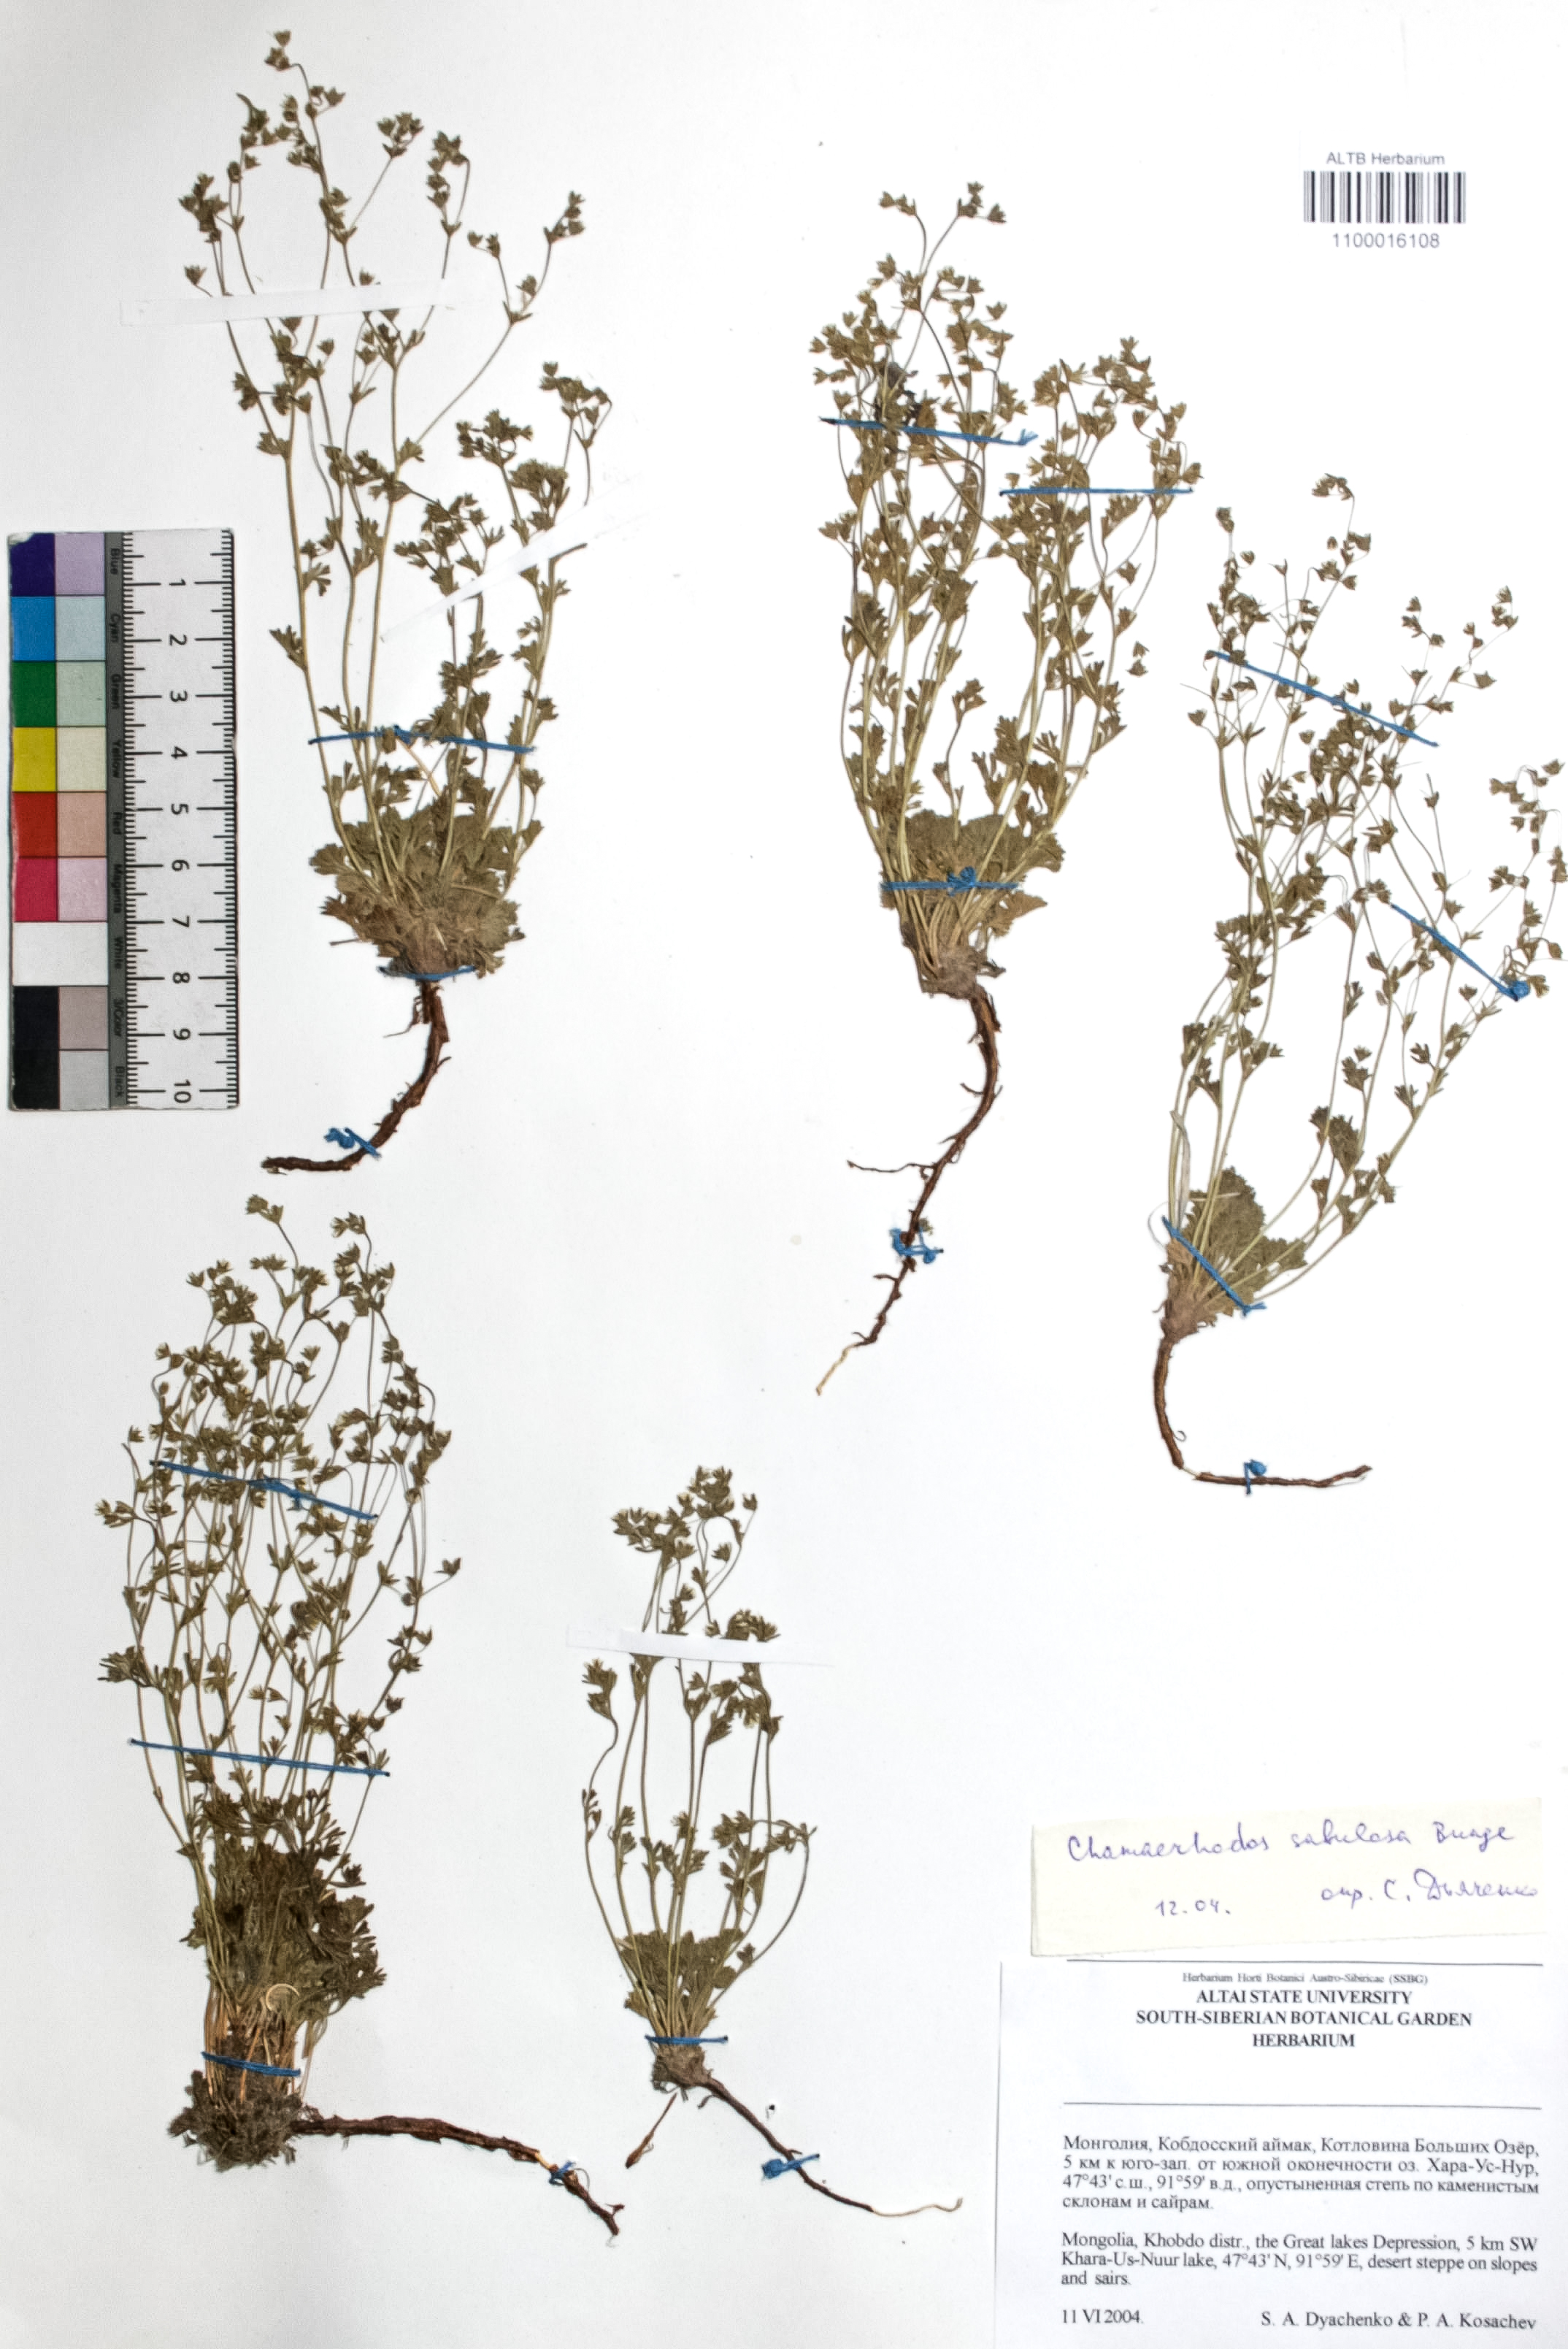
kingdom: Plantae
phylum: Tracheophyta
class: Magnoliopsida
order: Rosales
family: Rosaceae
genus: Chamaerhodos
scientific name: Chamaerhodos sabulosa
